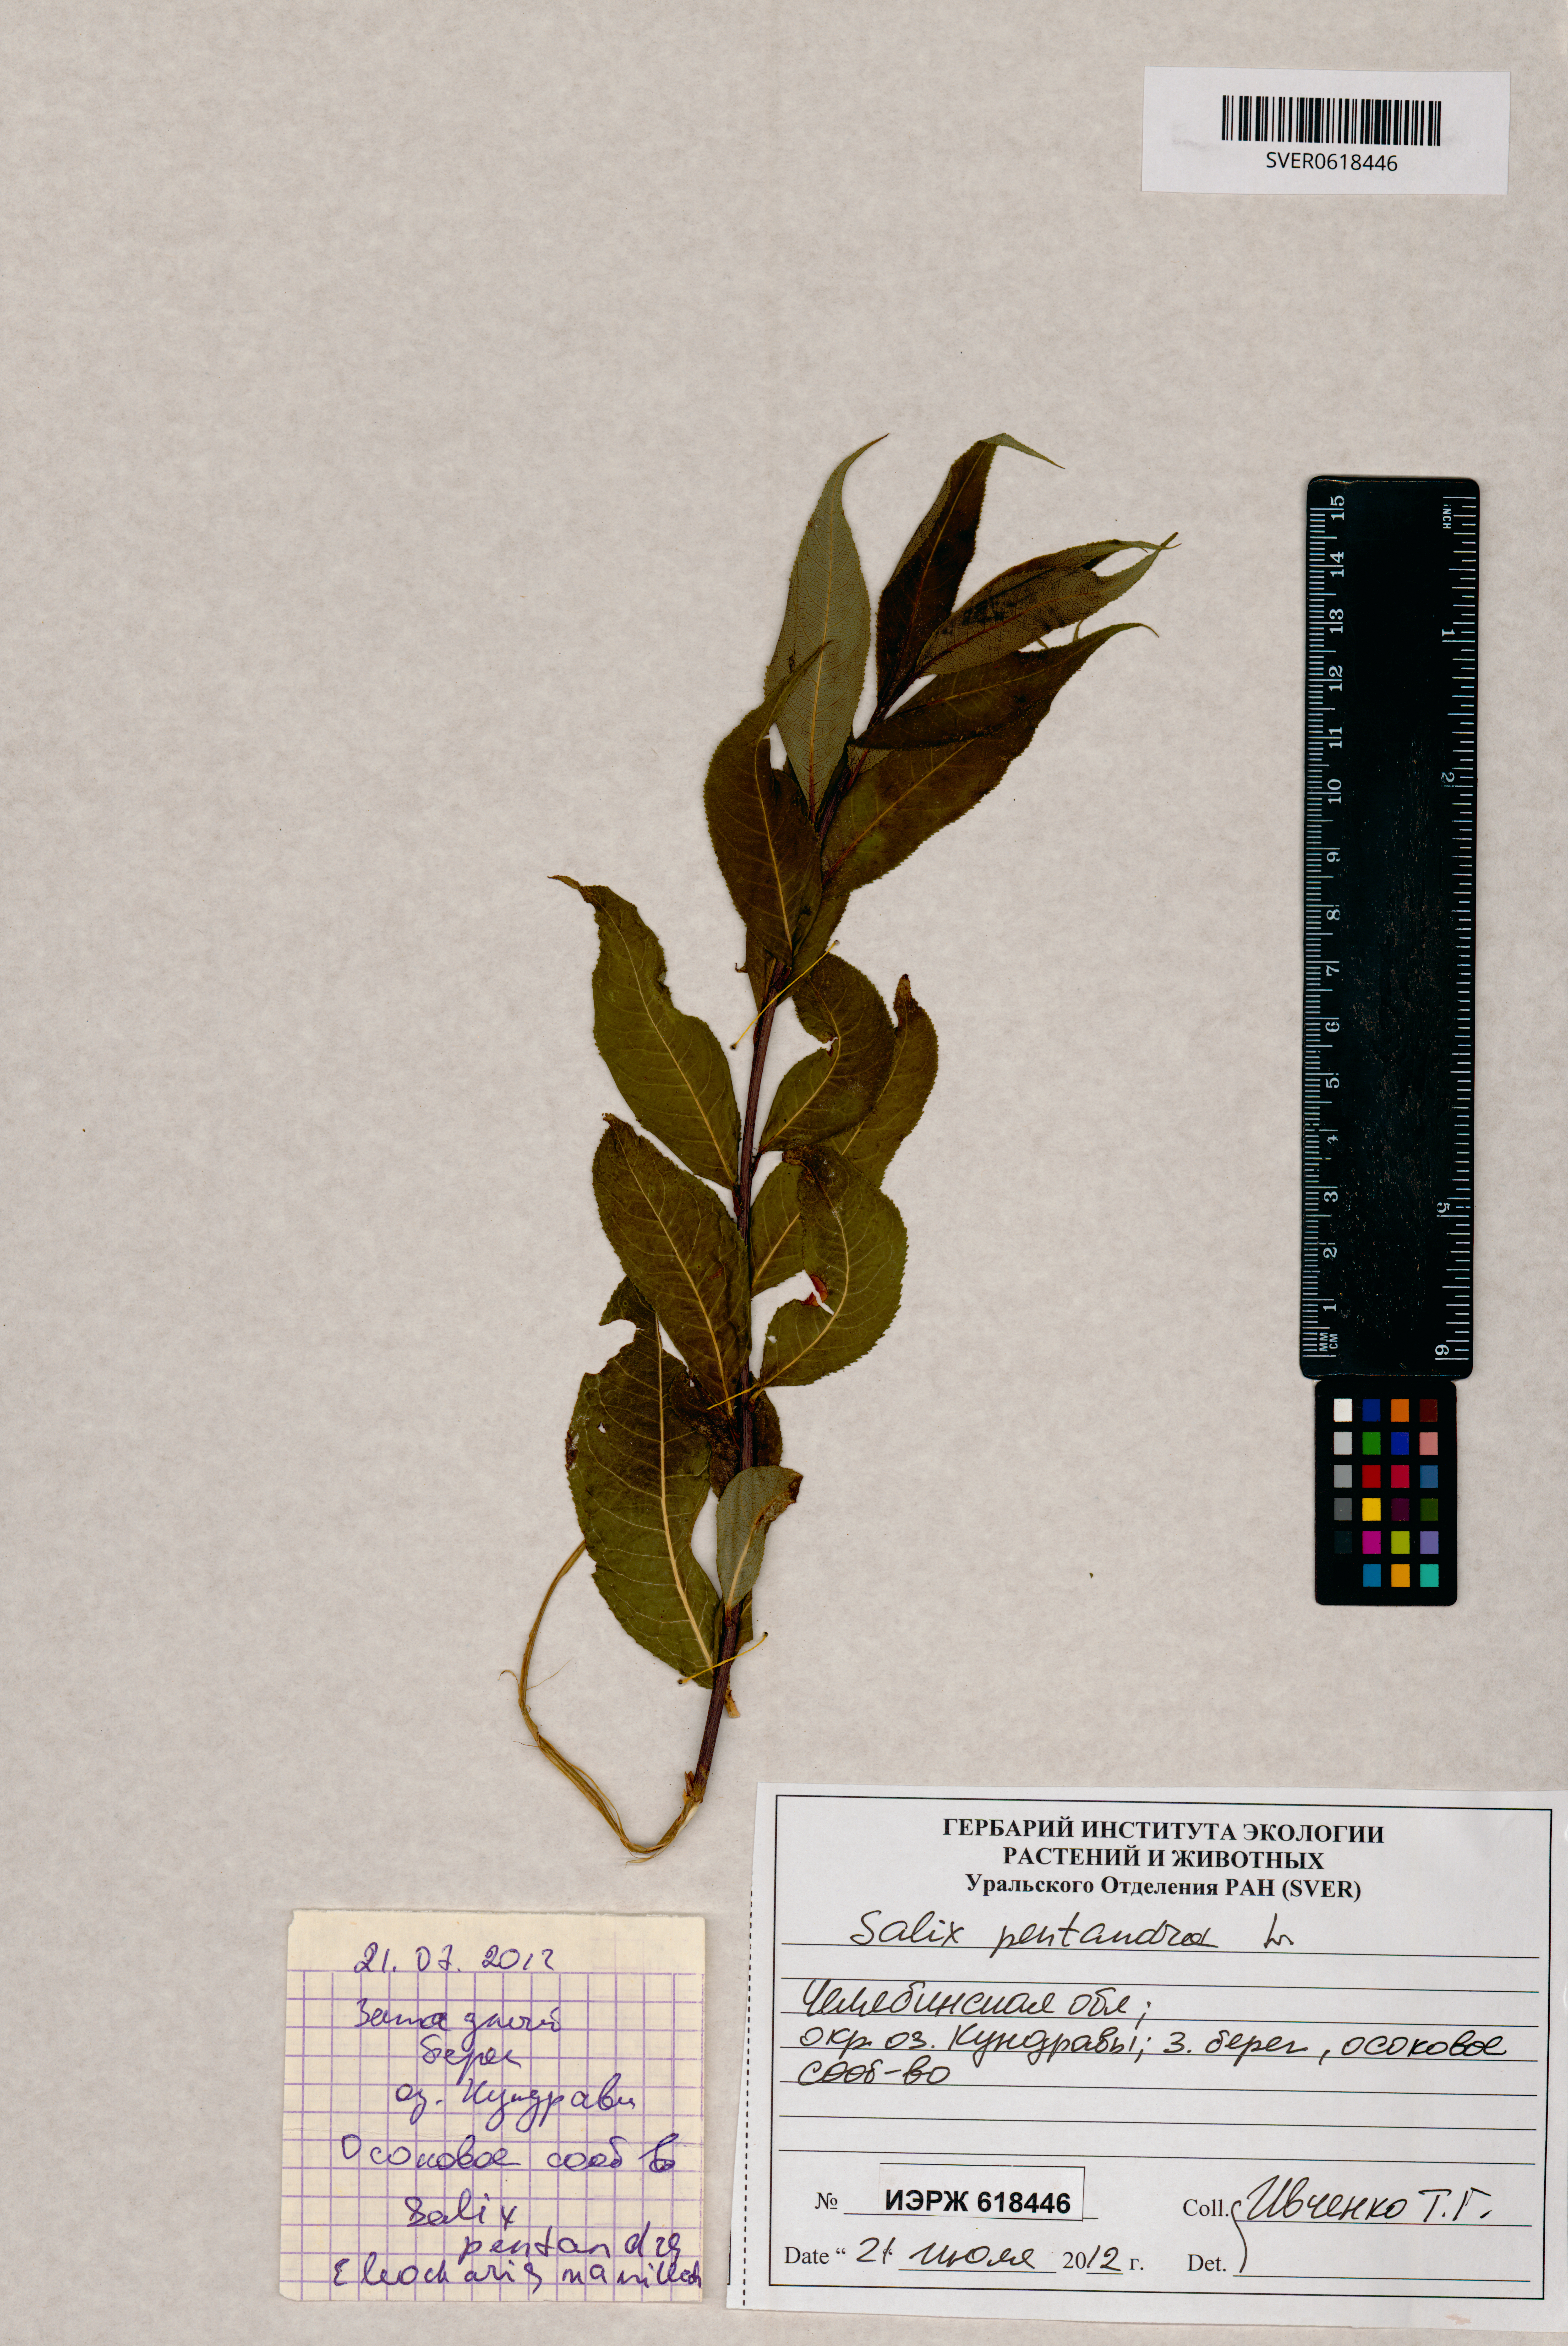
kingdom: Plantae
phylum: Tracheophyta
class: Magnoliopsida
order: Malpighiales
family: Salicaceae
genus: Salix
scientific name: Salix pentandra
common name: Bay willow
